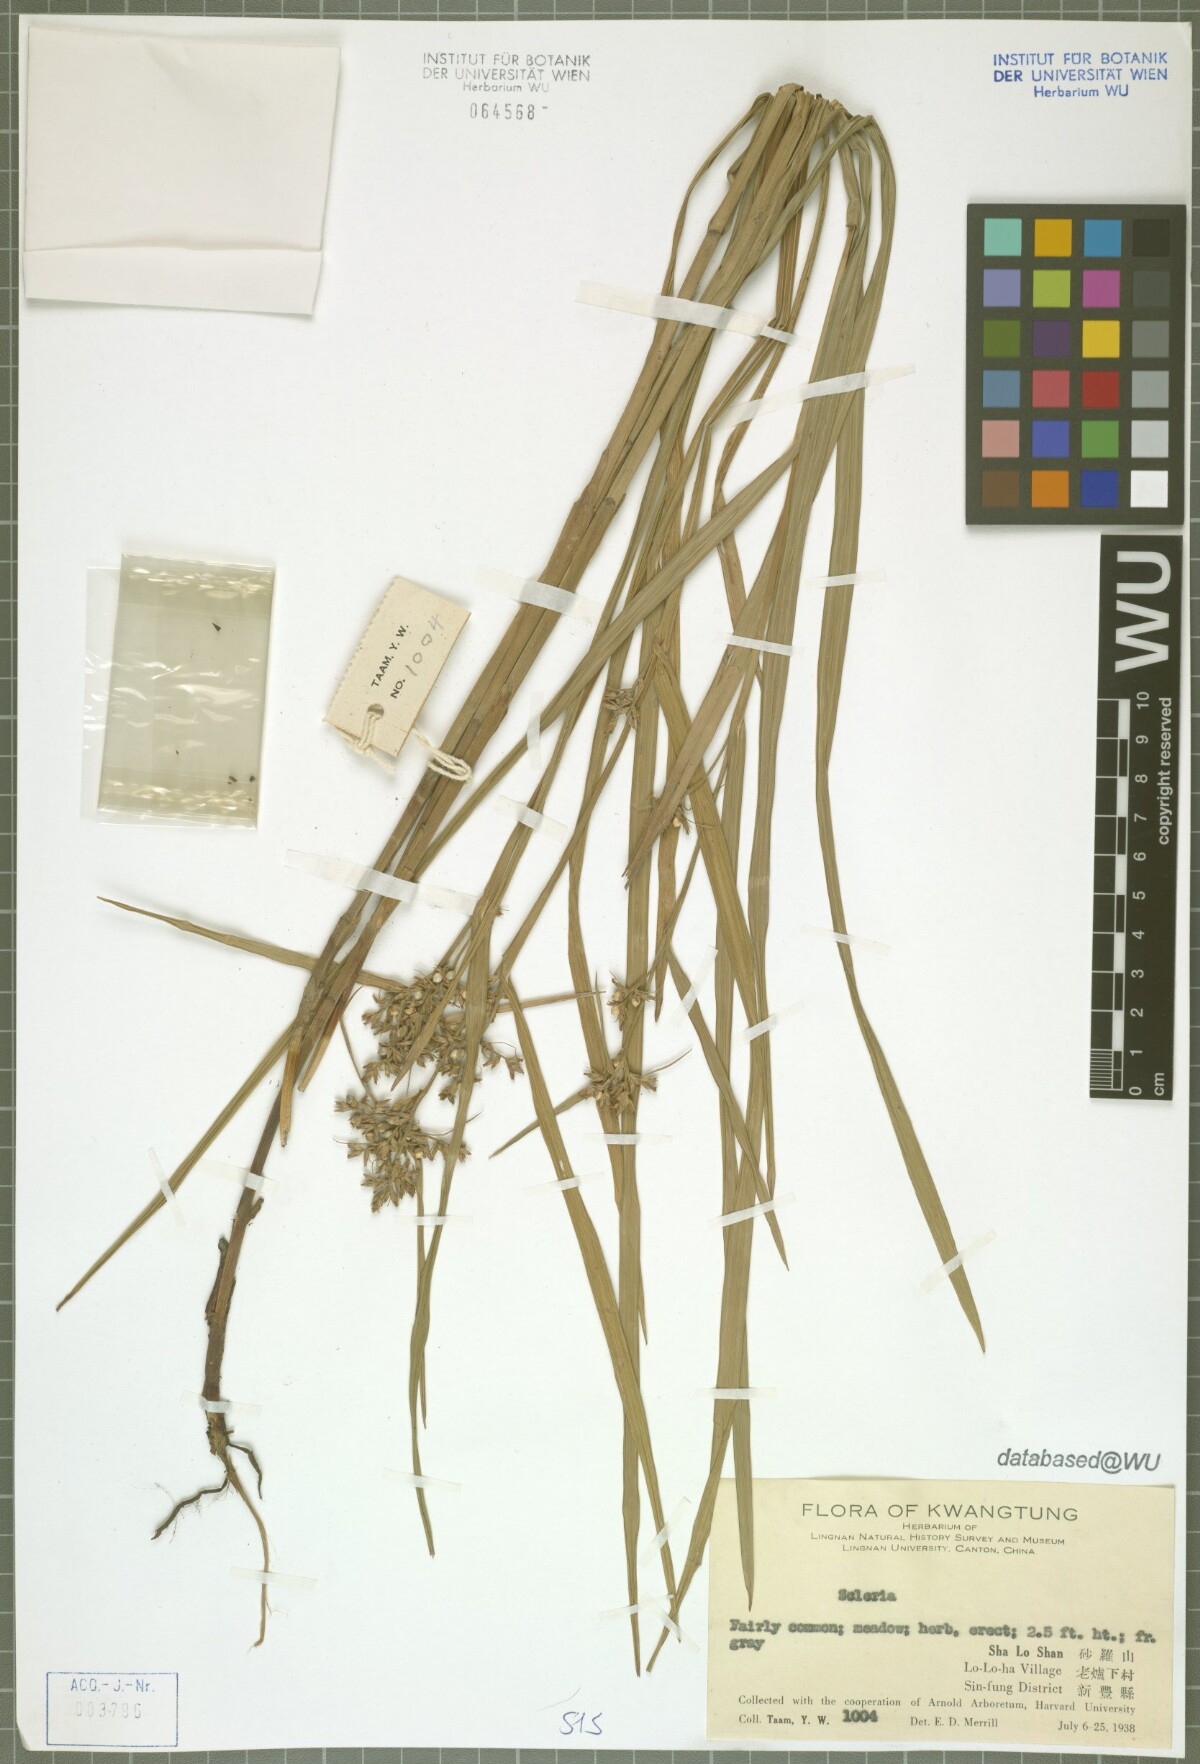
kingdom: Plantae
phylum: Tracheophyta
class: Liliopsida
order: Poales
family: Cyperaceae
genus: Scleria
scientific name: Scleria
